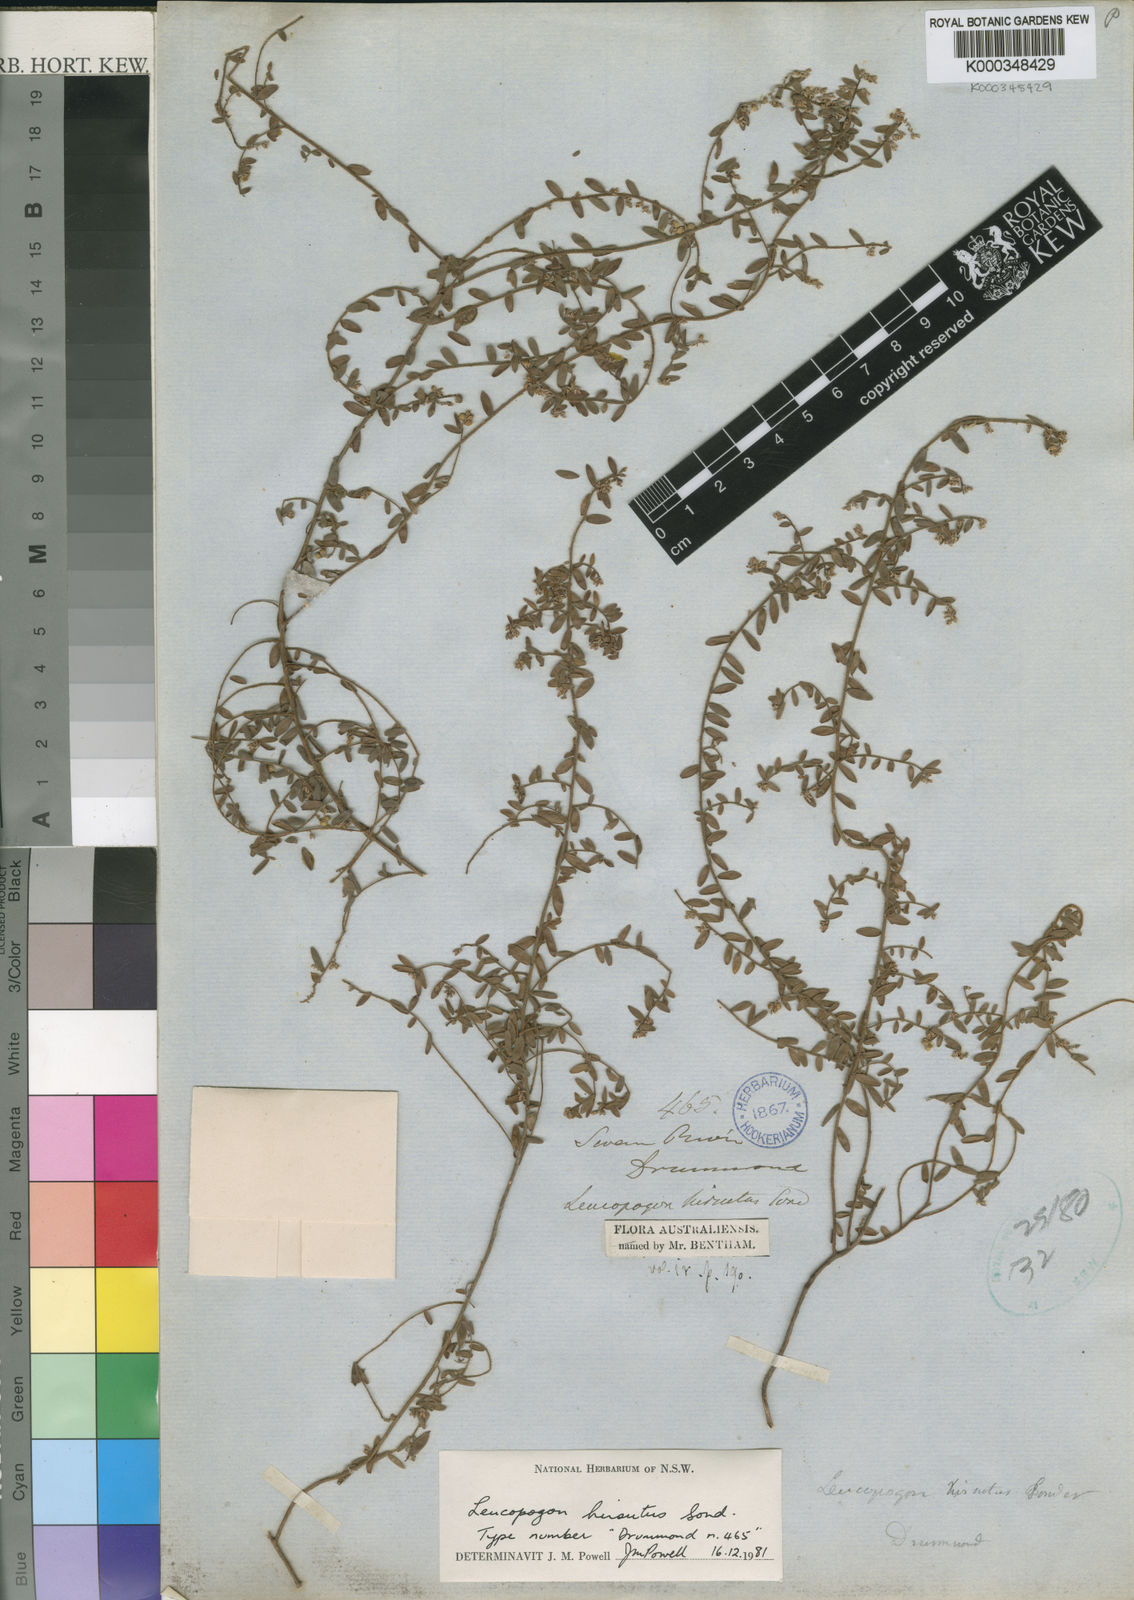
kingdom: Plantae
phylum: Tracheophyta
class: Magnoliopsida
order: Ericales
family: Ericaceae
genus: Leucopogon
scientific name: Leucopogon hirsutus
